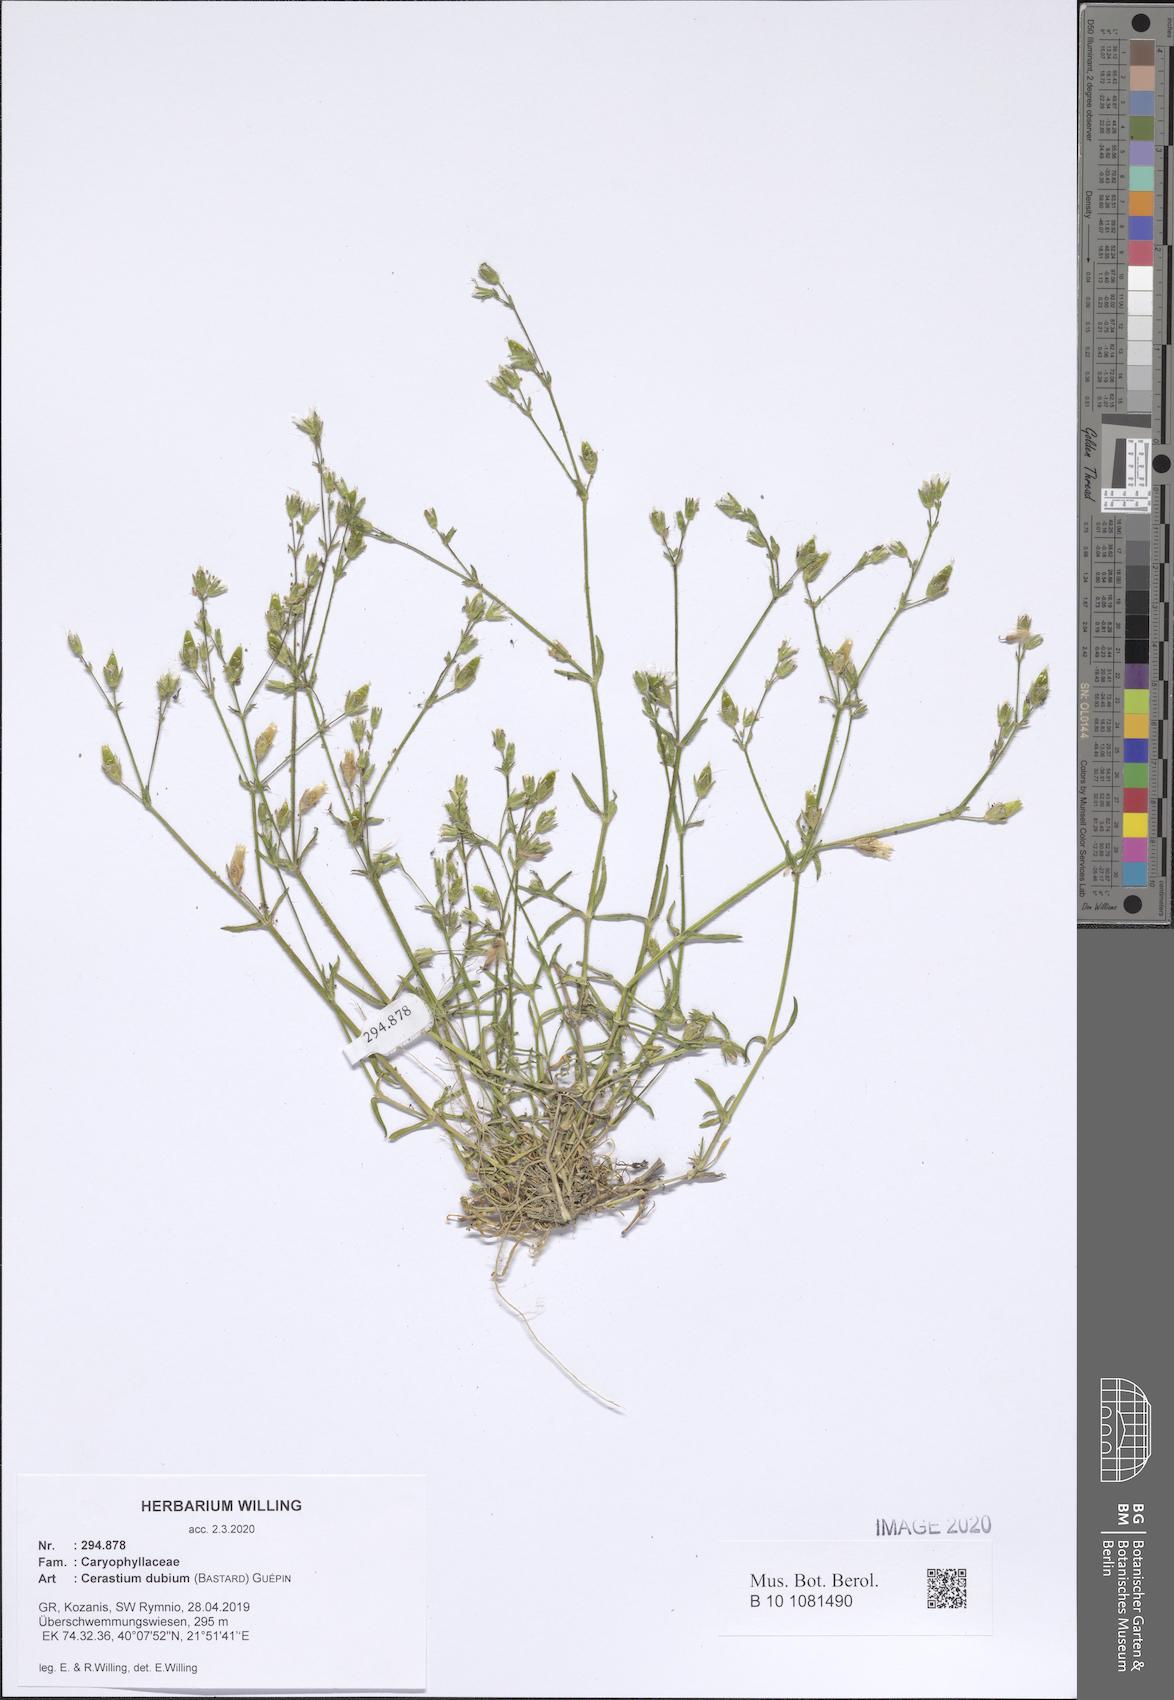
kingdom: Plantae
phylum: Tracheophyta
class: Magnoliopsida
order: Caryophyllales
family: Caryophyllaceae
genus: Dichodon
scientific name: Dichodon viscidum
